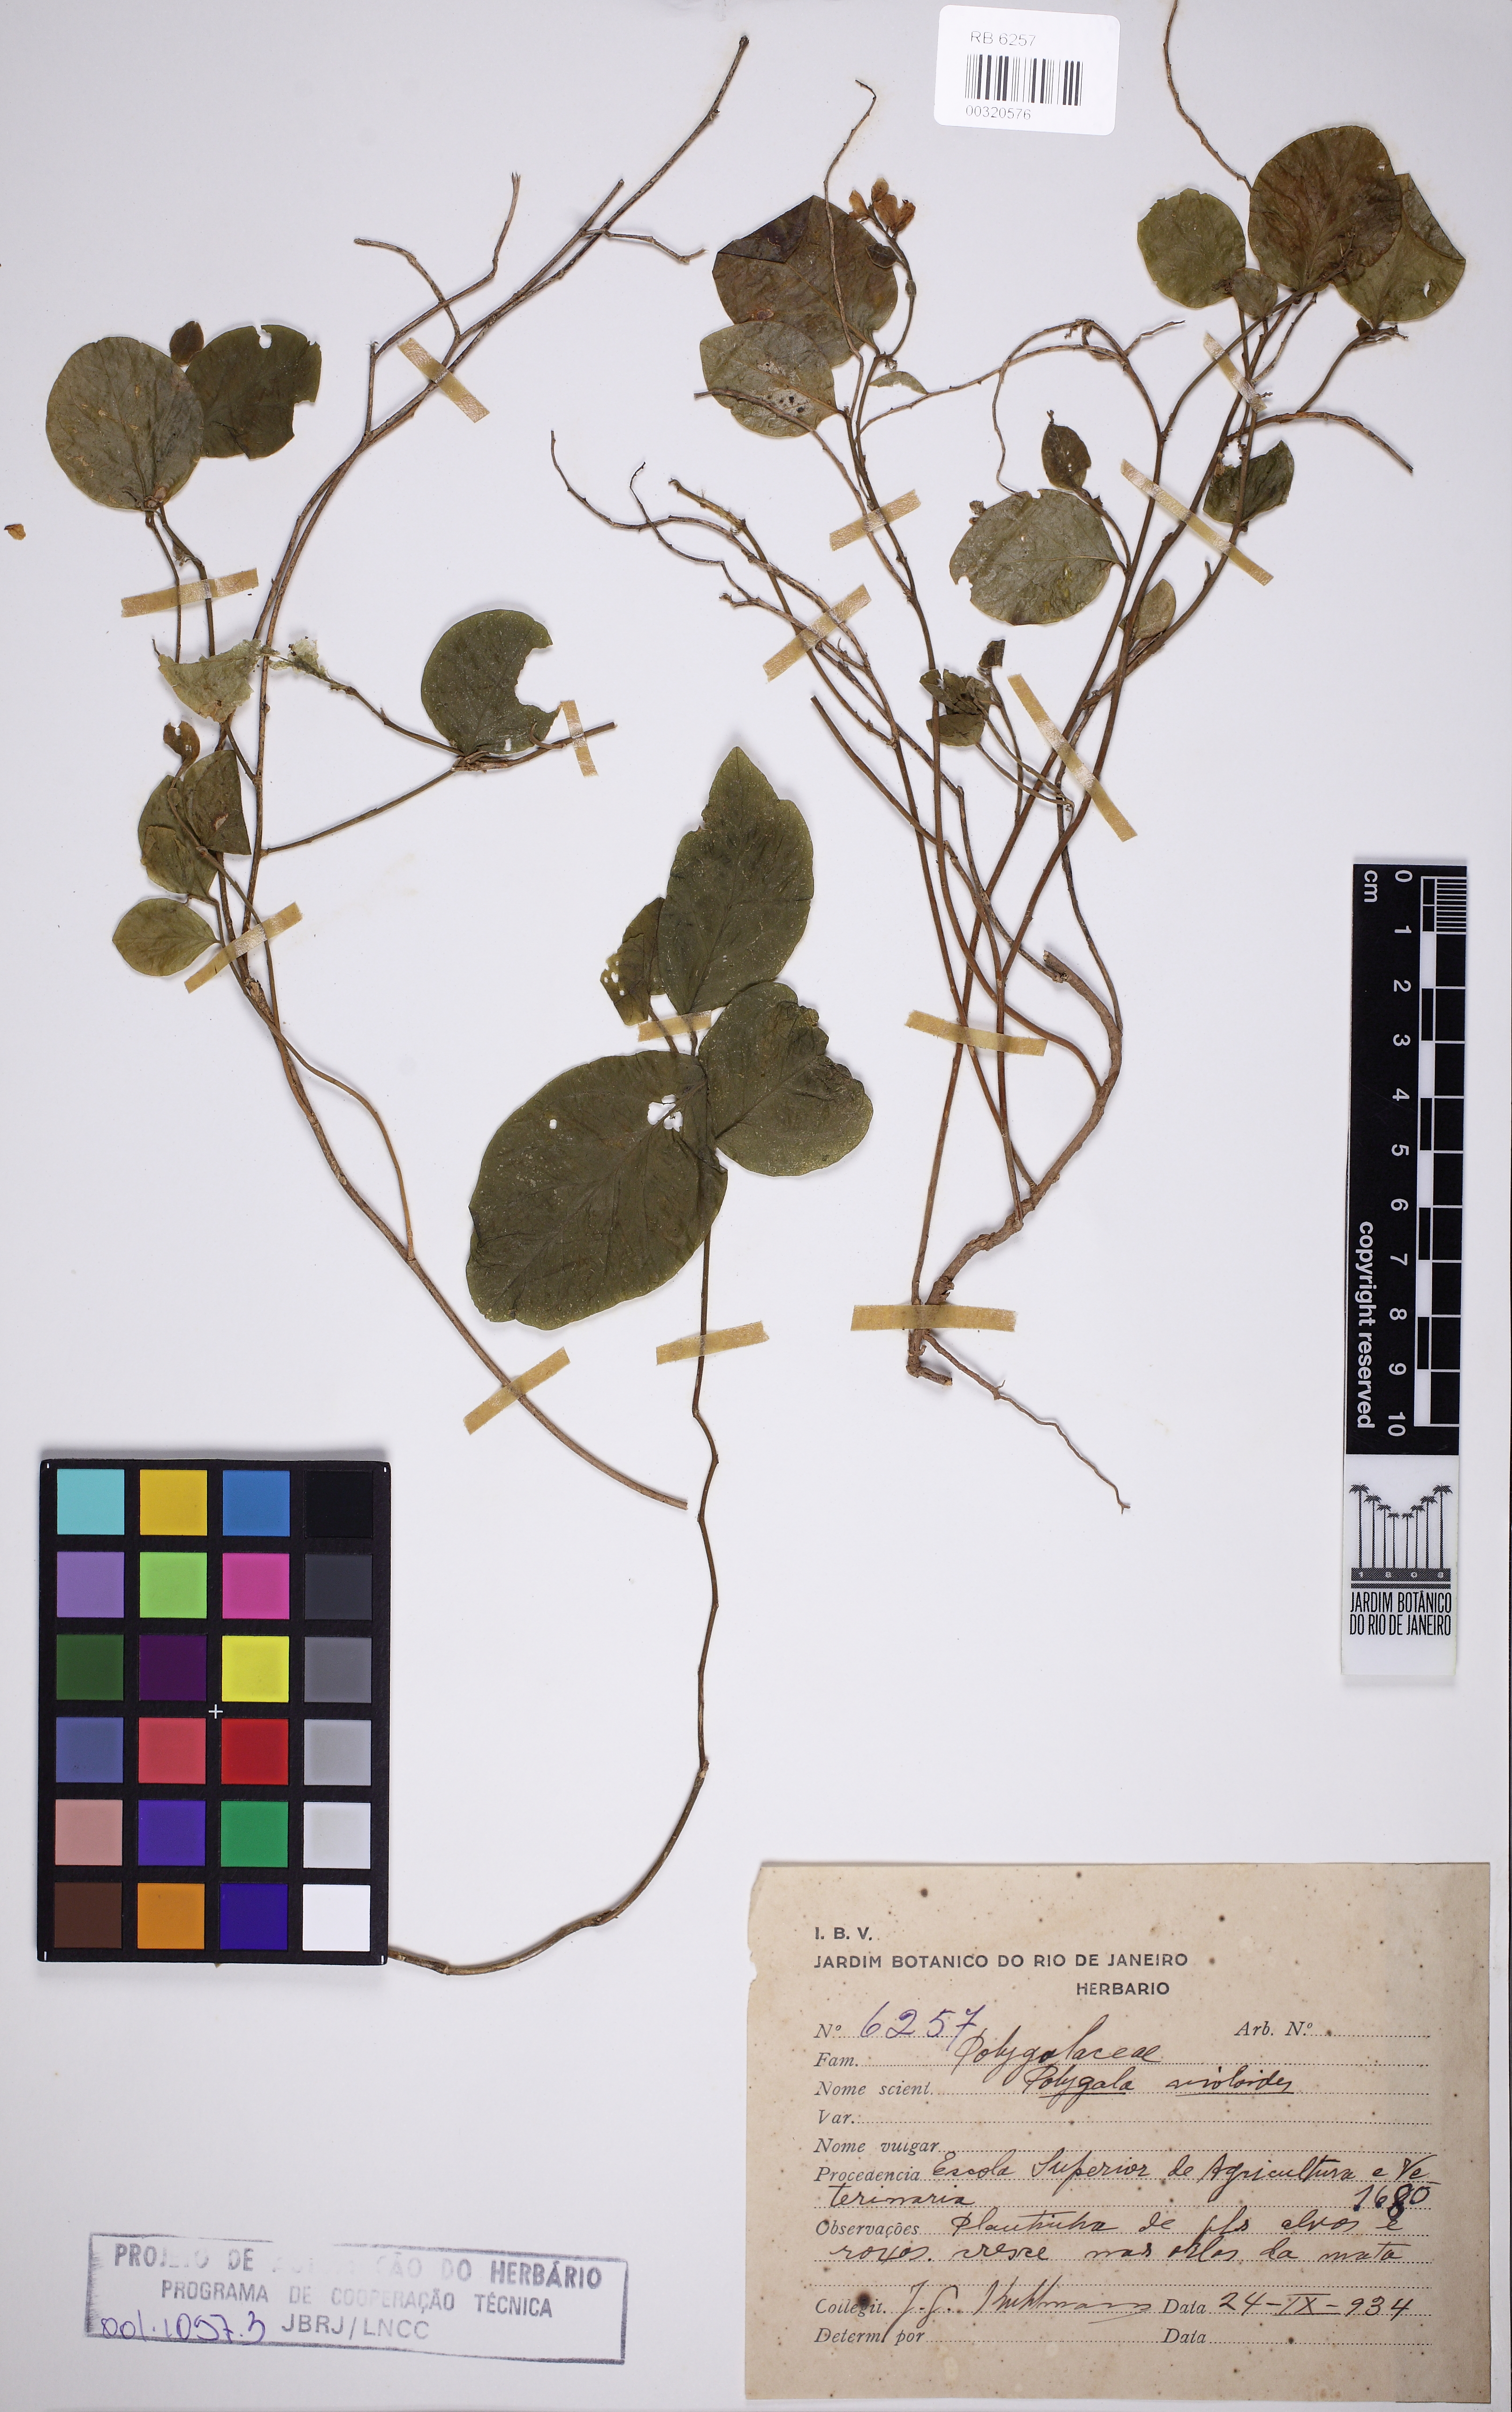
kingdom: Plantae
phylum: Tracheophyta
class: Magnoliopsida
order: Fabales
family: Polygalaceae
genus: Gymnospora
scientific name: Gymnospora violoides
